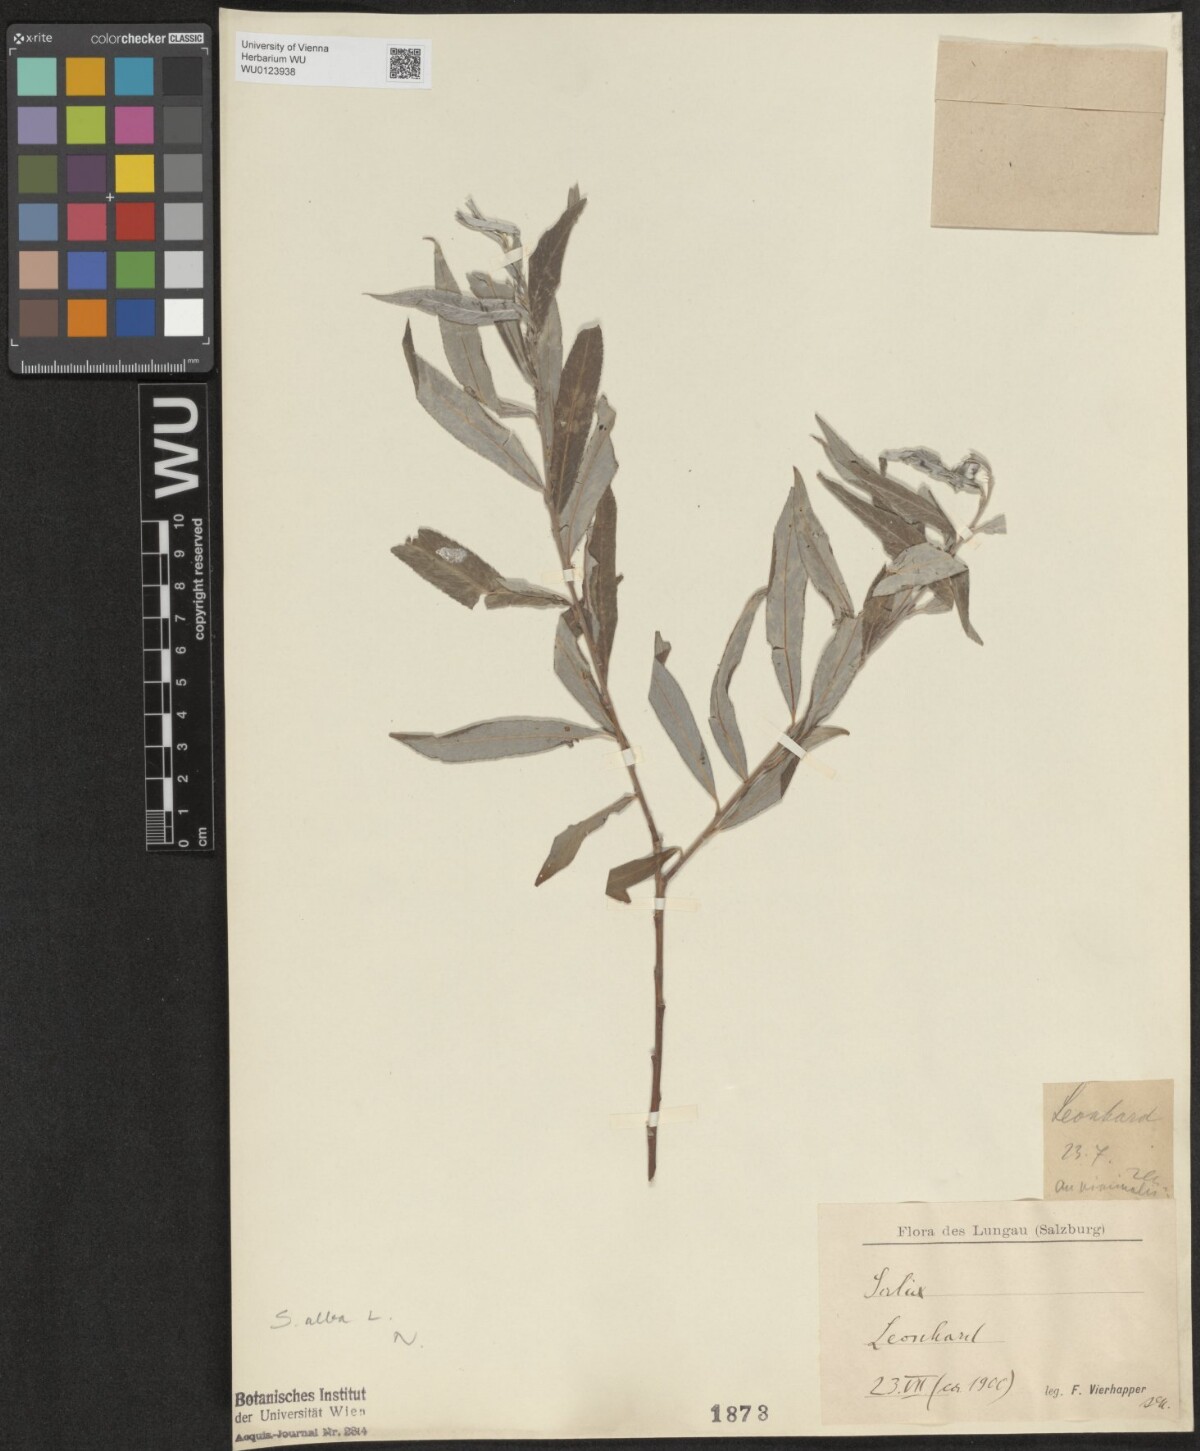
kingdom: Plantae
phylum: Tracheophyta
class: Magnoliopsida
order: Malpighiales
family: Salicaceae
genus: Salix
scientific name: Salix alba
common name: White willow
